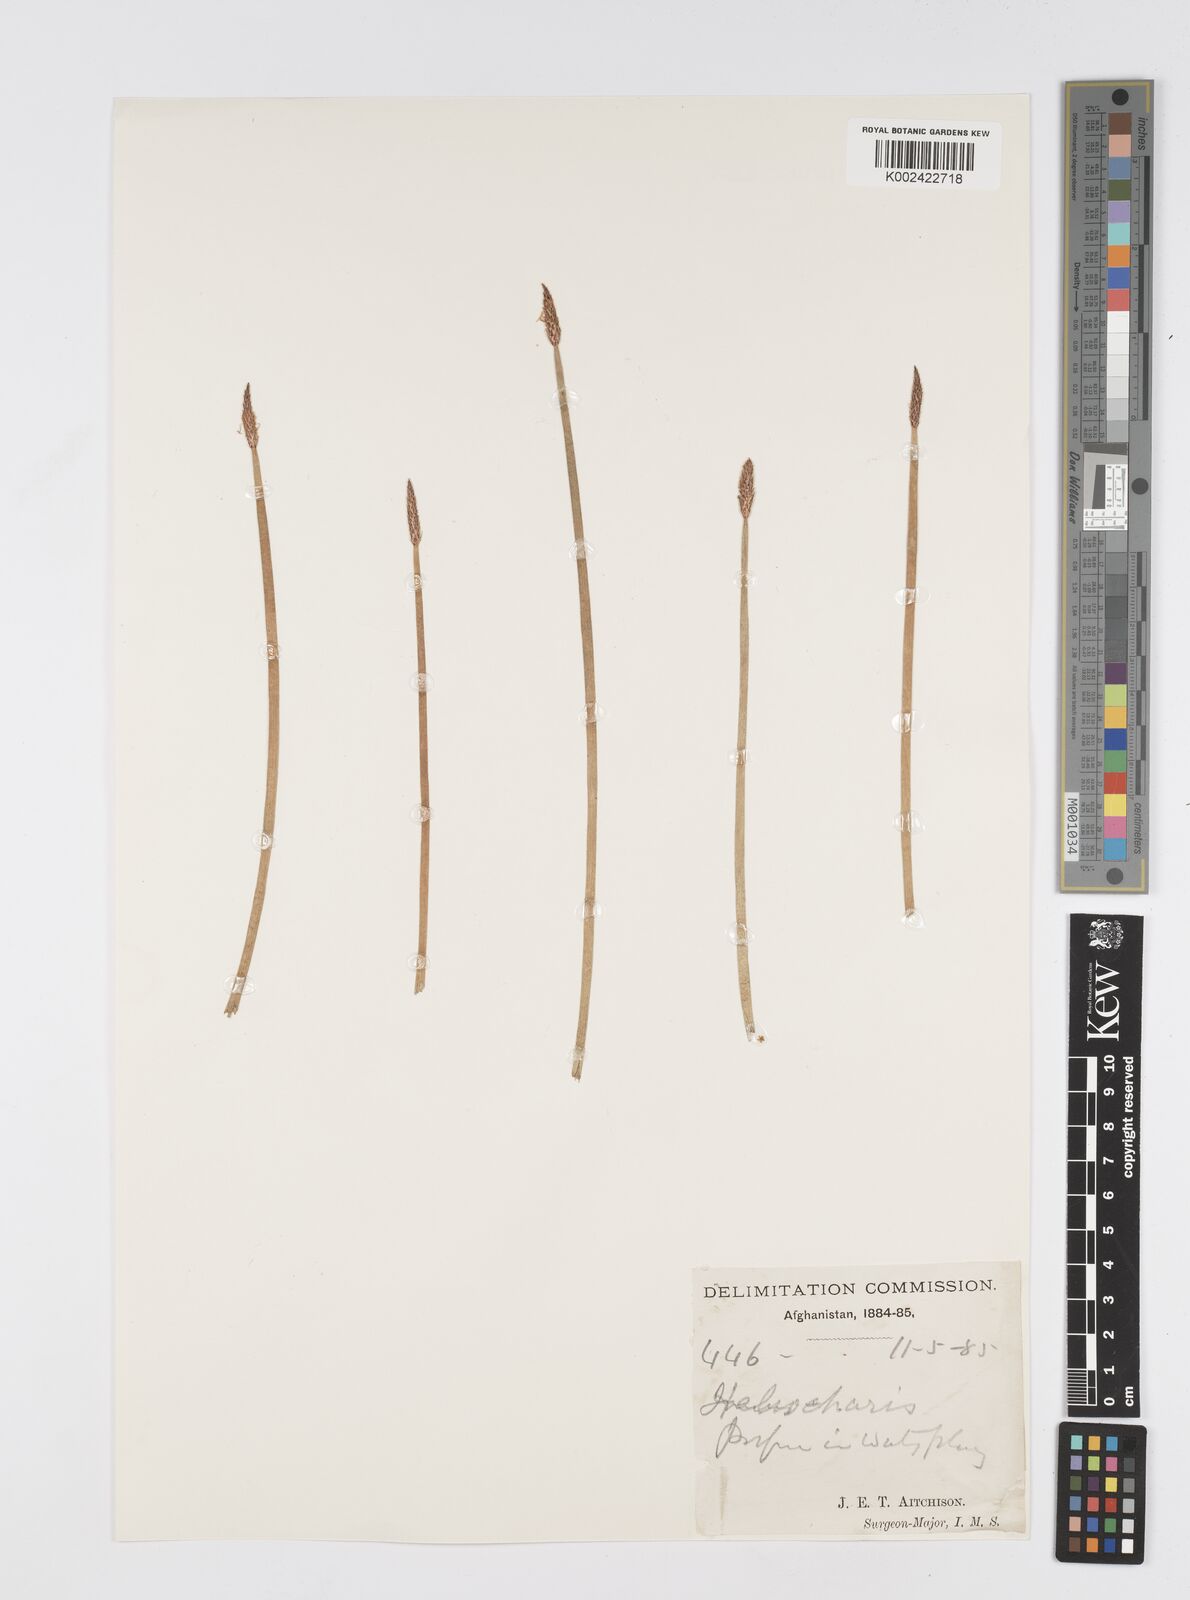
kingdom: Plantae
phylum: Tracheophyta
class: Liliopsida
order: Poales
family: Cyperaceae
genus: Eleocharis
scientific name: Eleocharis
